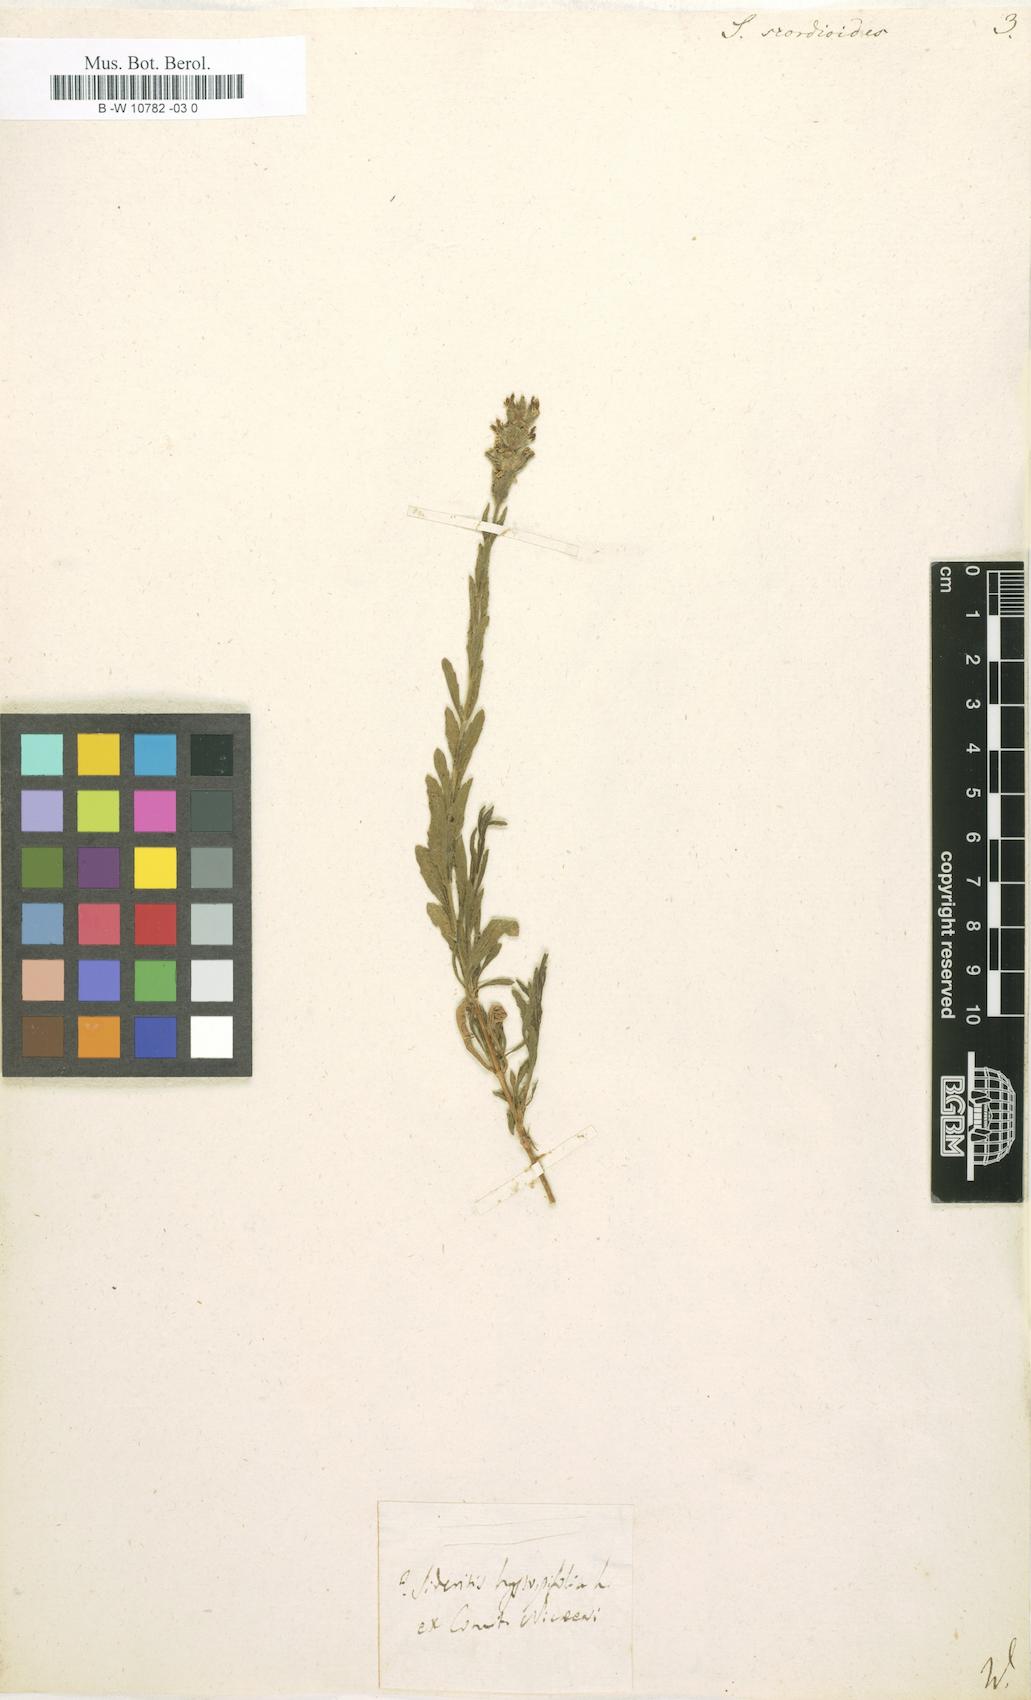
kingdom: Plantae
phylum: Tracheophyta
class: Magnoliopsida
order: Lamiales
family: Lamiaceae
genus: Sideritis
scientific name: Sideritis hyssopifolia
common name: Mountain tea
